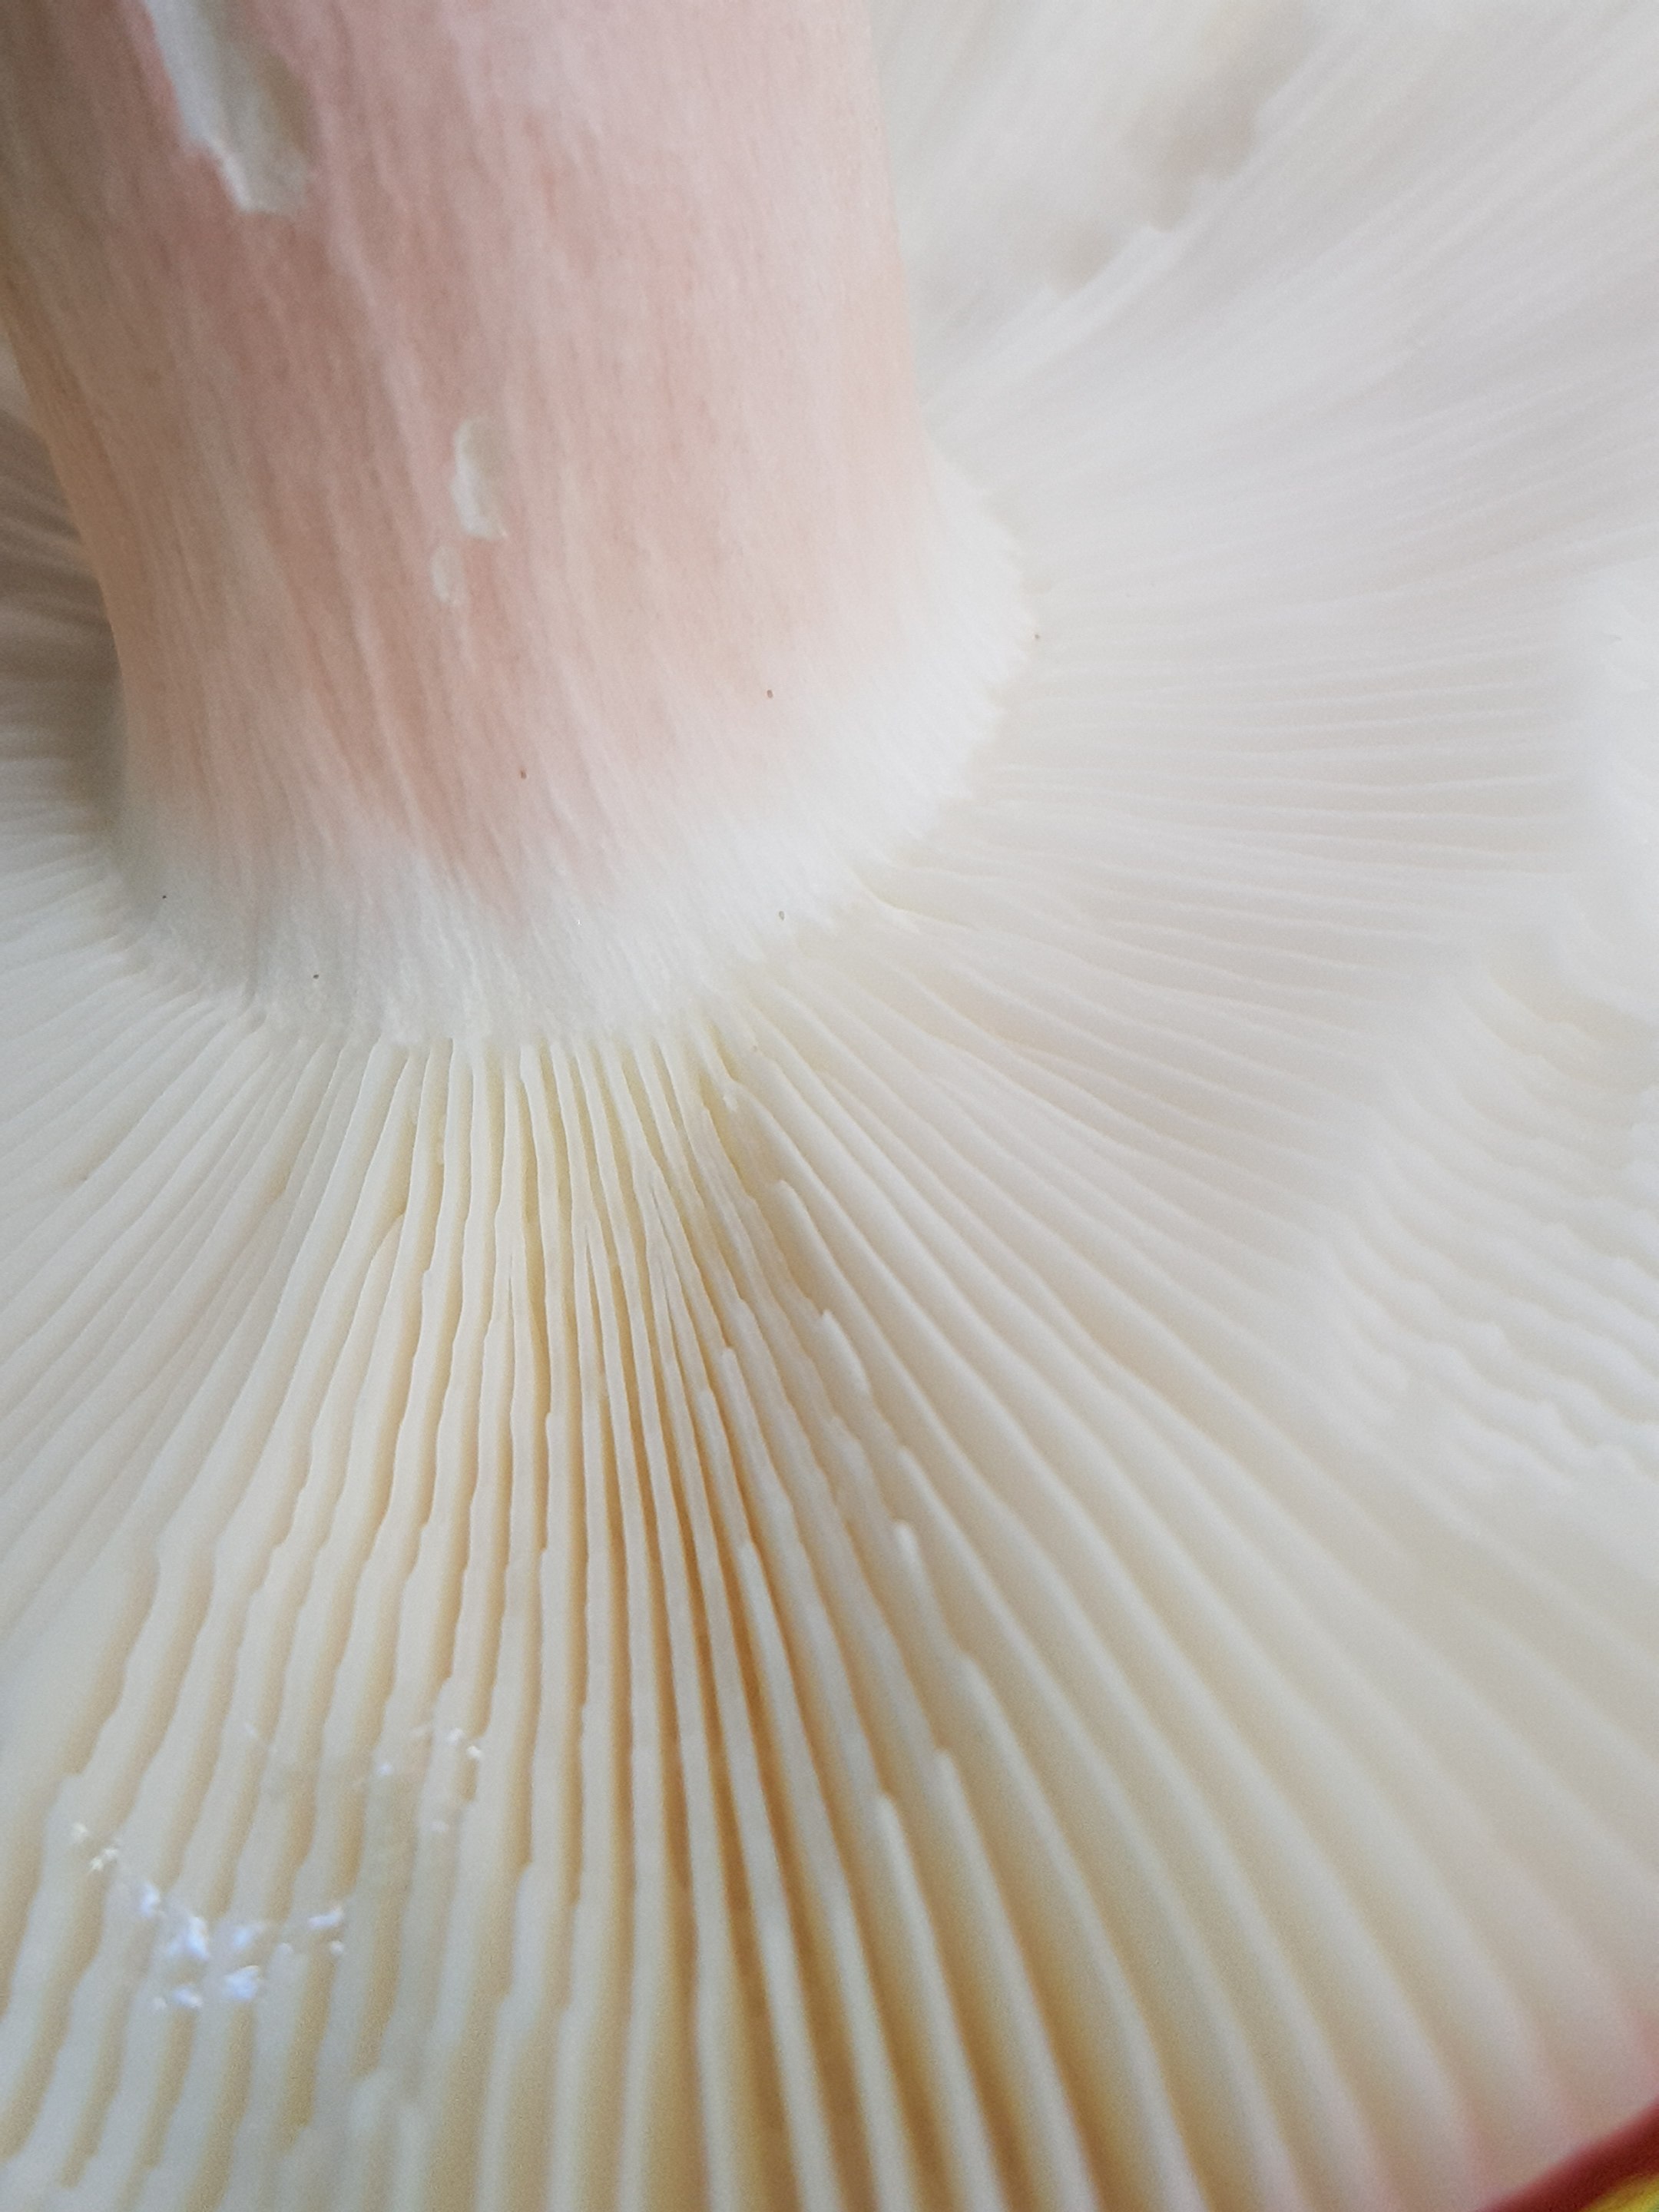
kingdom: Fungi
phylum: Basidiomycota
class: Agaricomycetes
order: Russulales
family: Russulaceae
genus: Russula
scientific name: Russula paludosa
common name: prægtig skørhat
